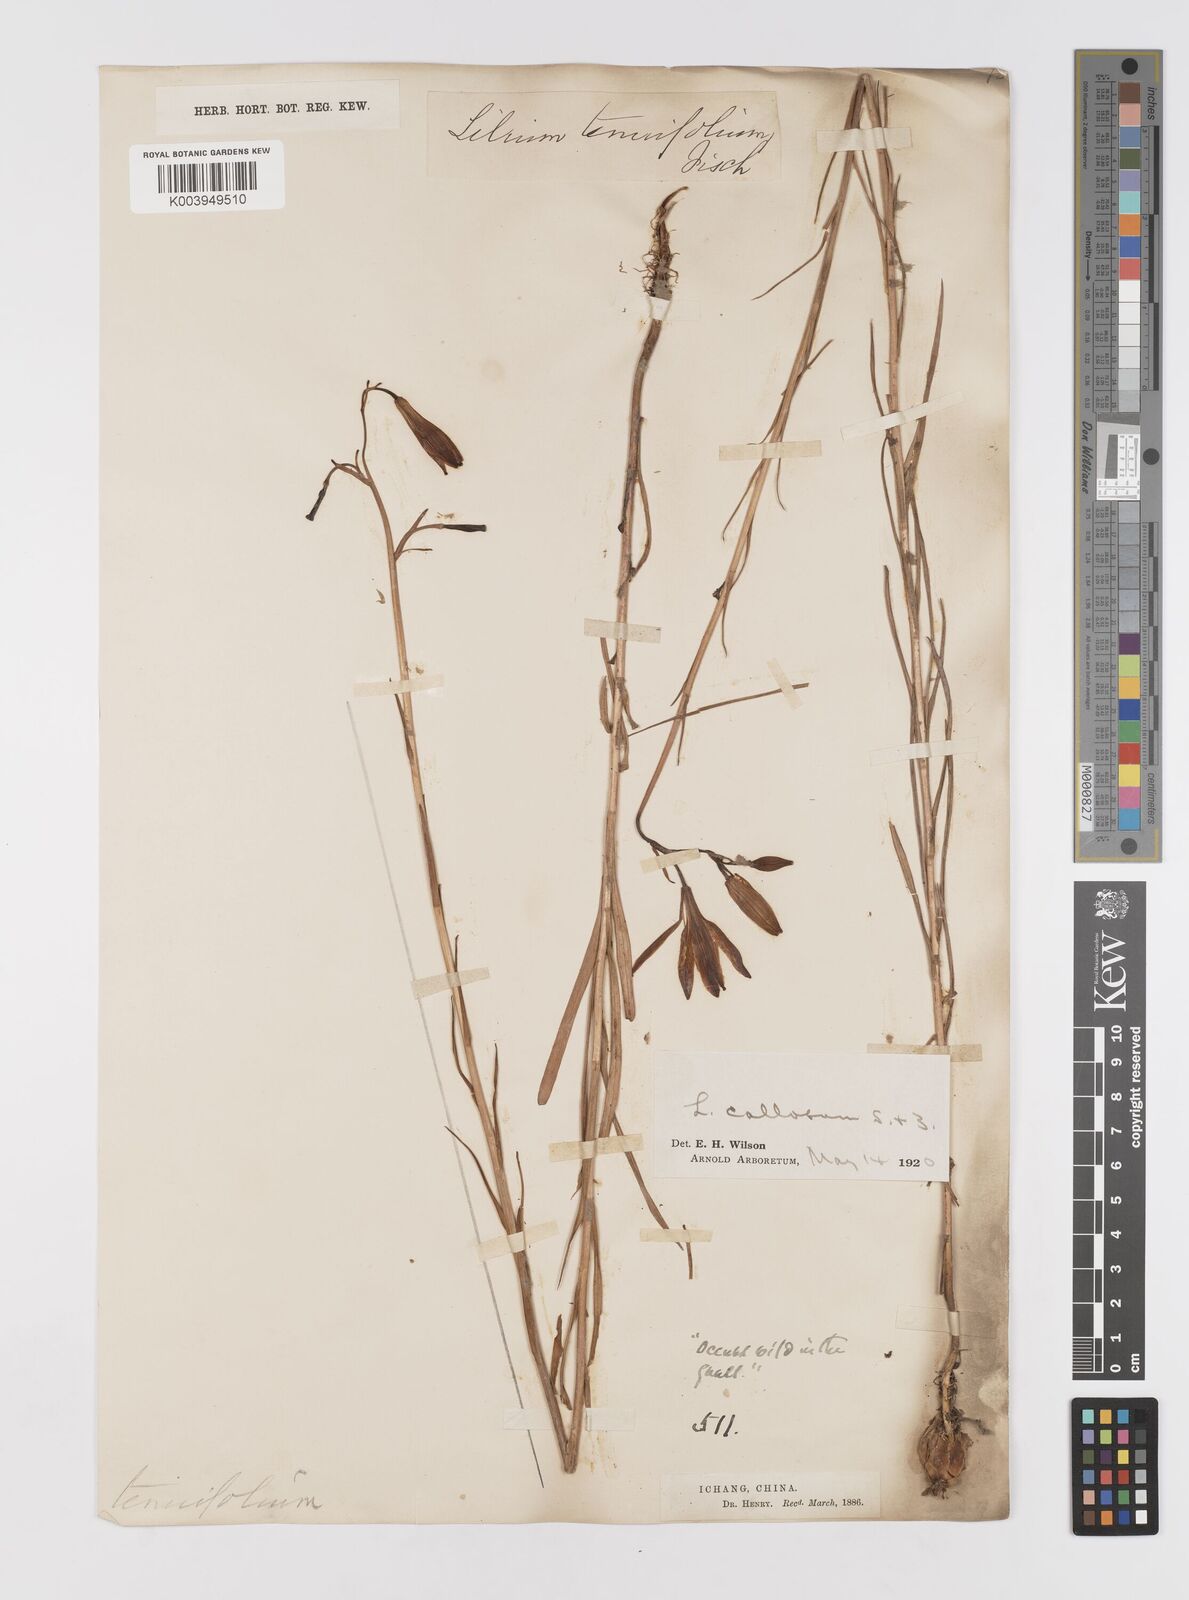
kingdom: Plantae
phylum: Tracheophyta
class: Liliopsida
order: Liliales
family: Liliaceae
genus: Lilium
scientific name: Lilium callosum
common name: Slim-stem lily
